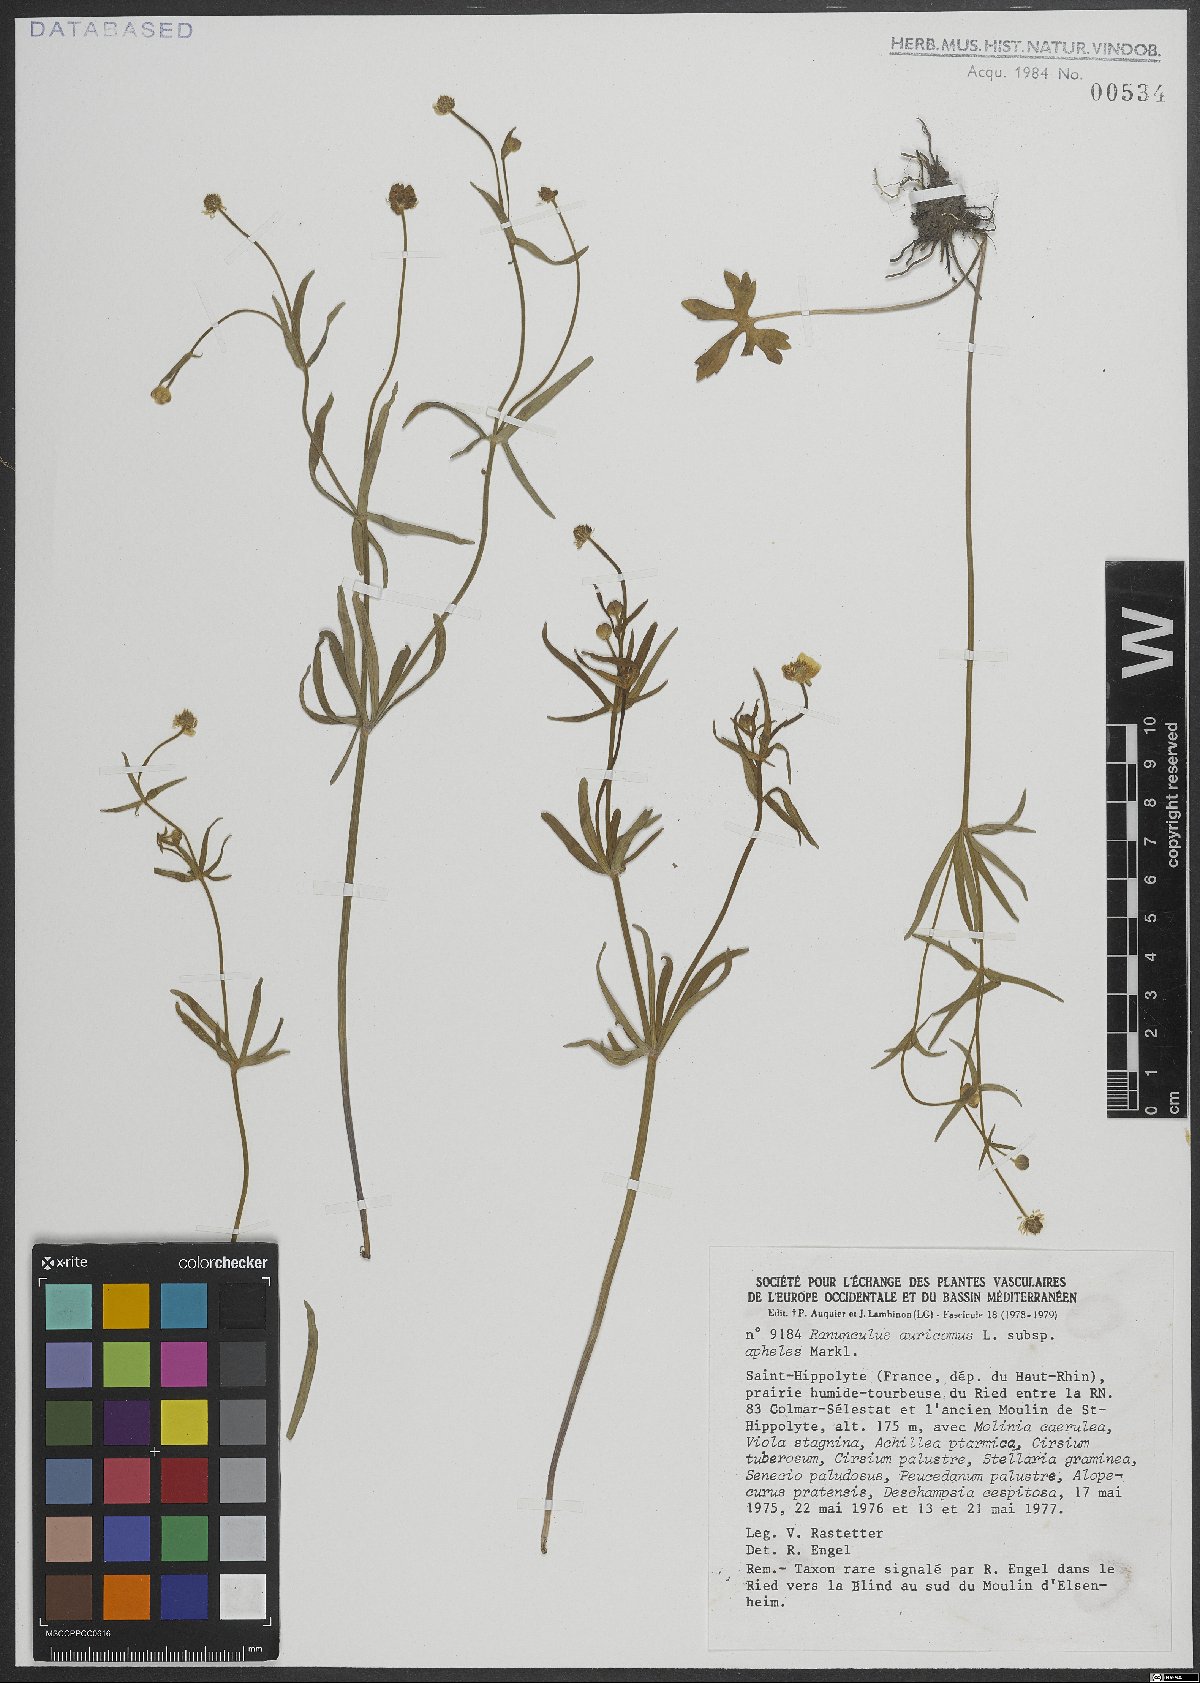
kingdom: Plantae
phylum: Tracheophyta
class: Magnoliopsida
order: Ranunculales
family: Ranunculaceae
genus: Ranunculus
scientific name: Ranunculus auricomus
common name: Goldilocks buttercup
